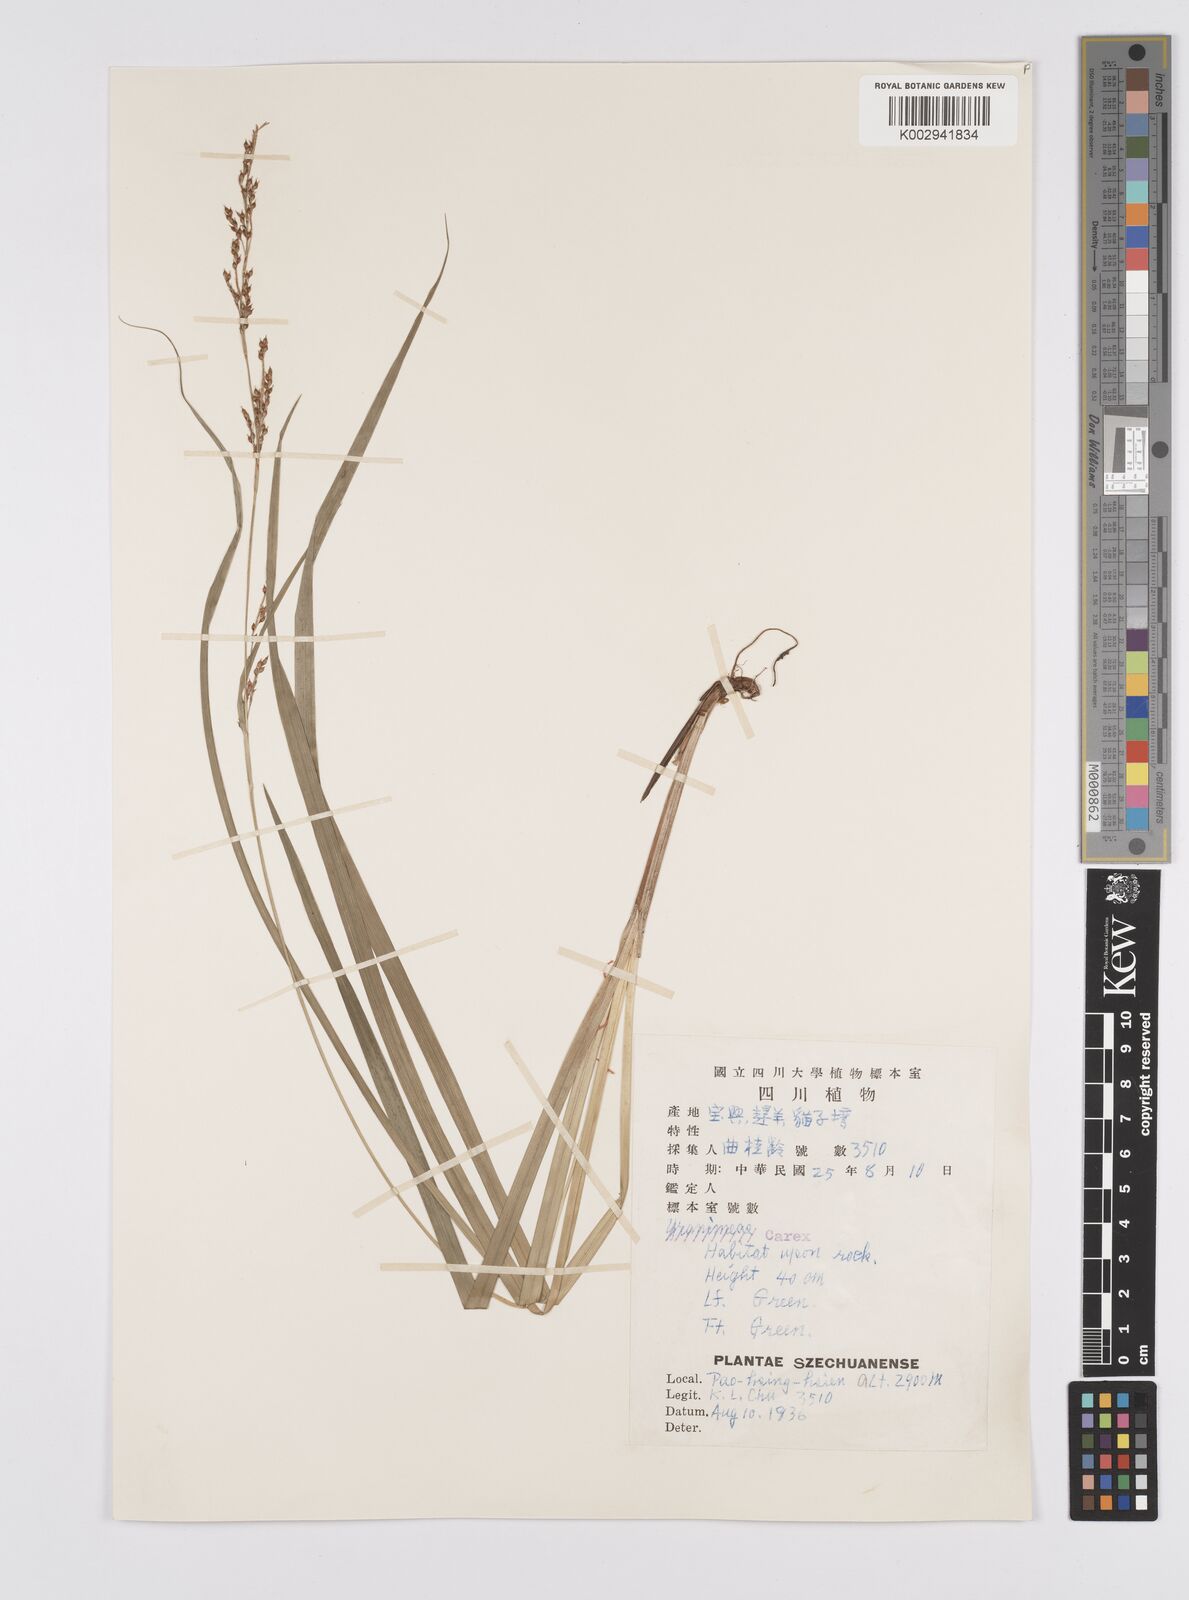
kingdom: Plantae
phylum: Tracheophyta
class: Liliopsida
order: Poales
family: Cyperaceae
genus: Carex
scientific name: Carex gentilis
